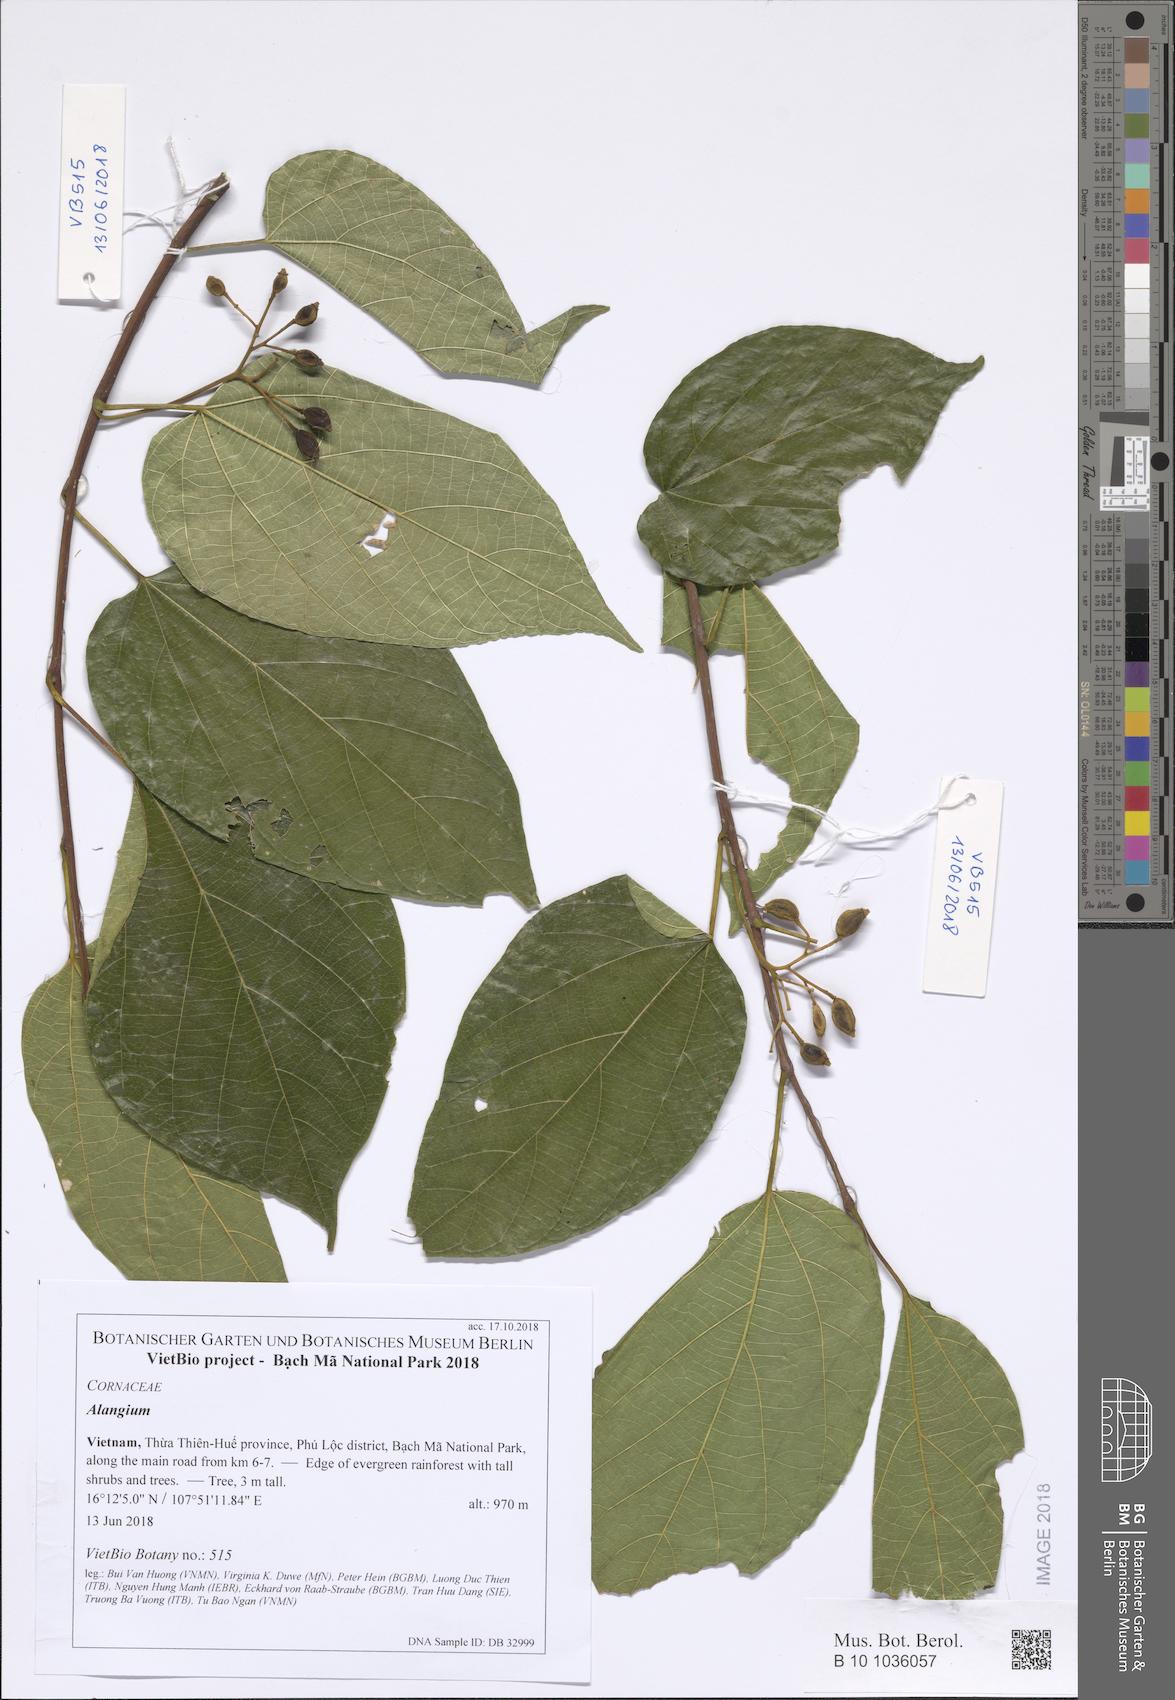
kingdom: Plantae
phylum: Tracheophyta
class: Magnoliopsida
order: Cornales
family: Cornaceae
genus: Alangium
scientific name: Alangium
